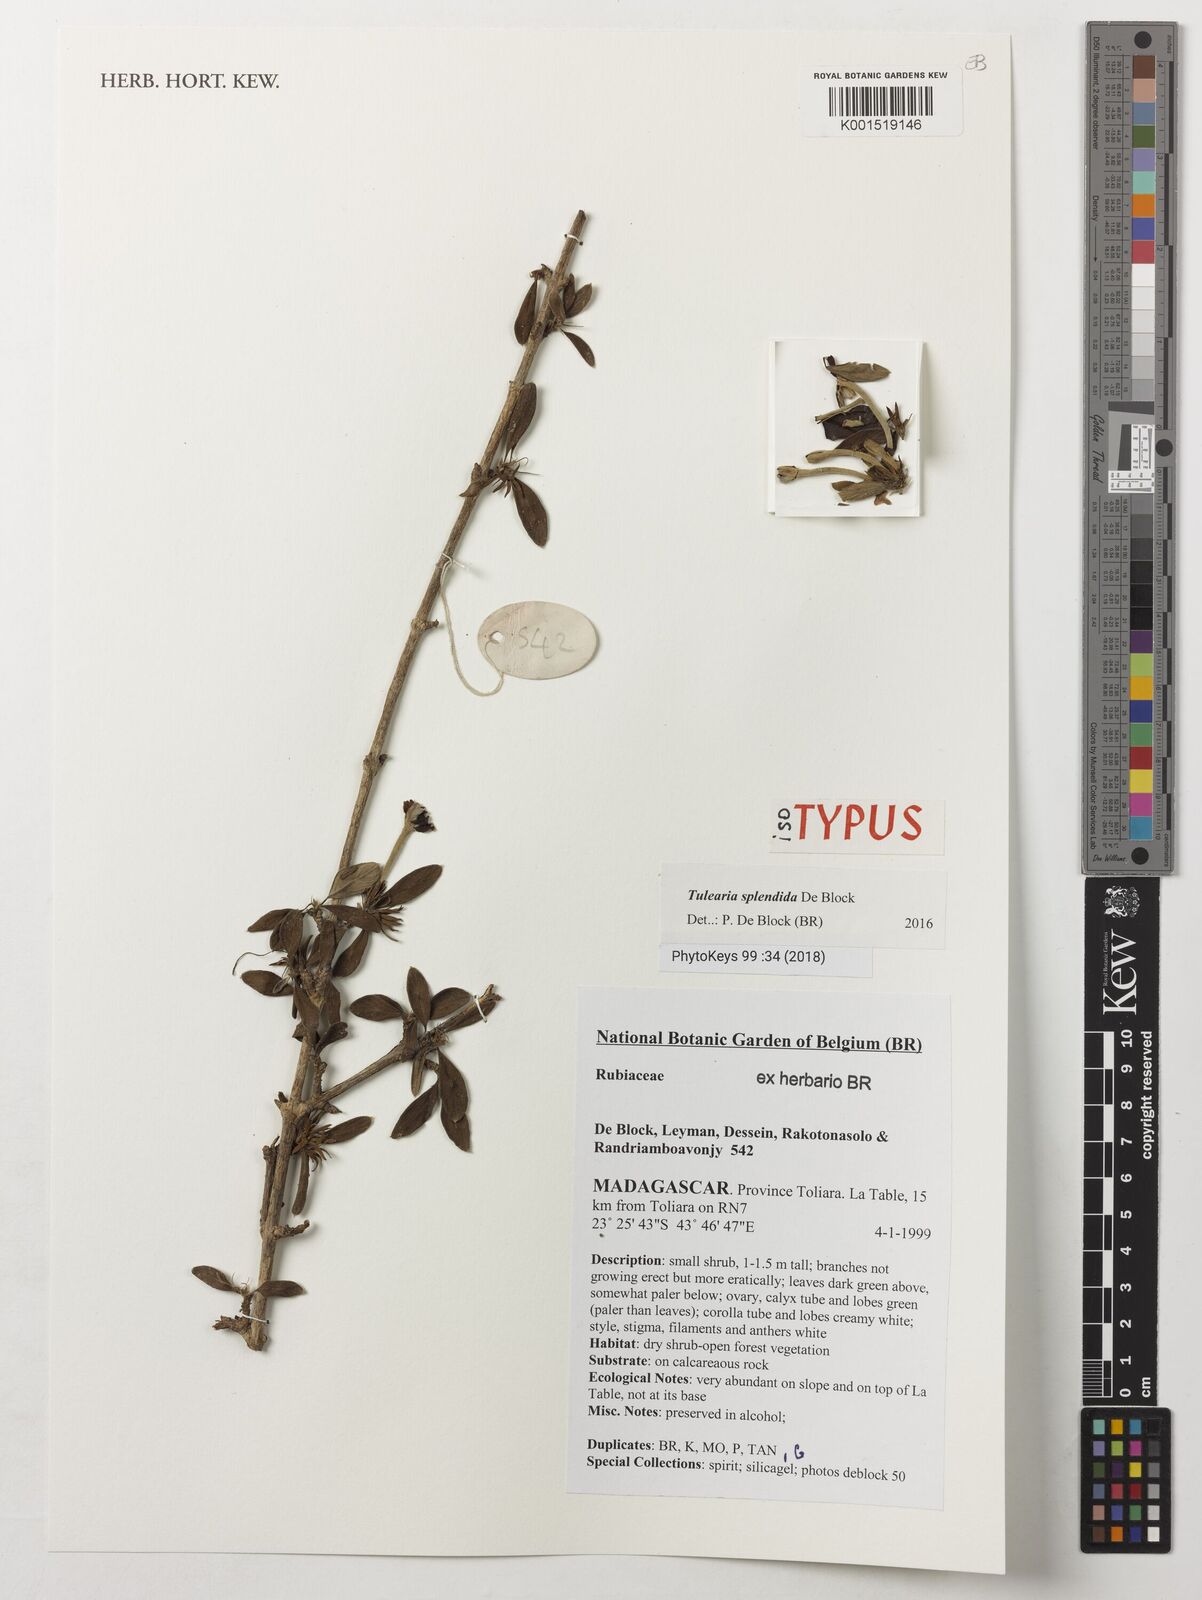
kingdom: Plantae
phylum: Tracheophyta
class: Magnoliopsida
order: Gentianales
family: Rubiaceae
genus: Tulearia
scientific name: Tulearia splendida
